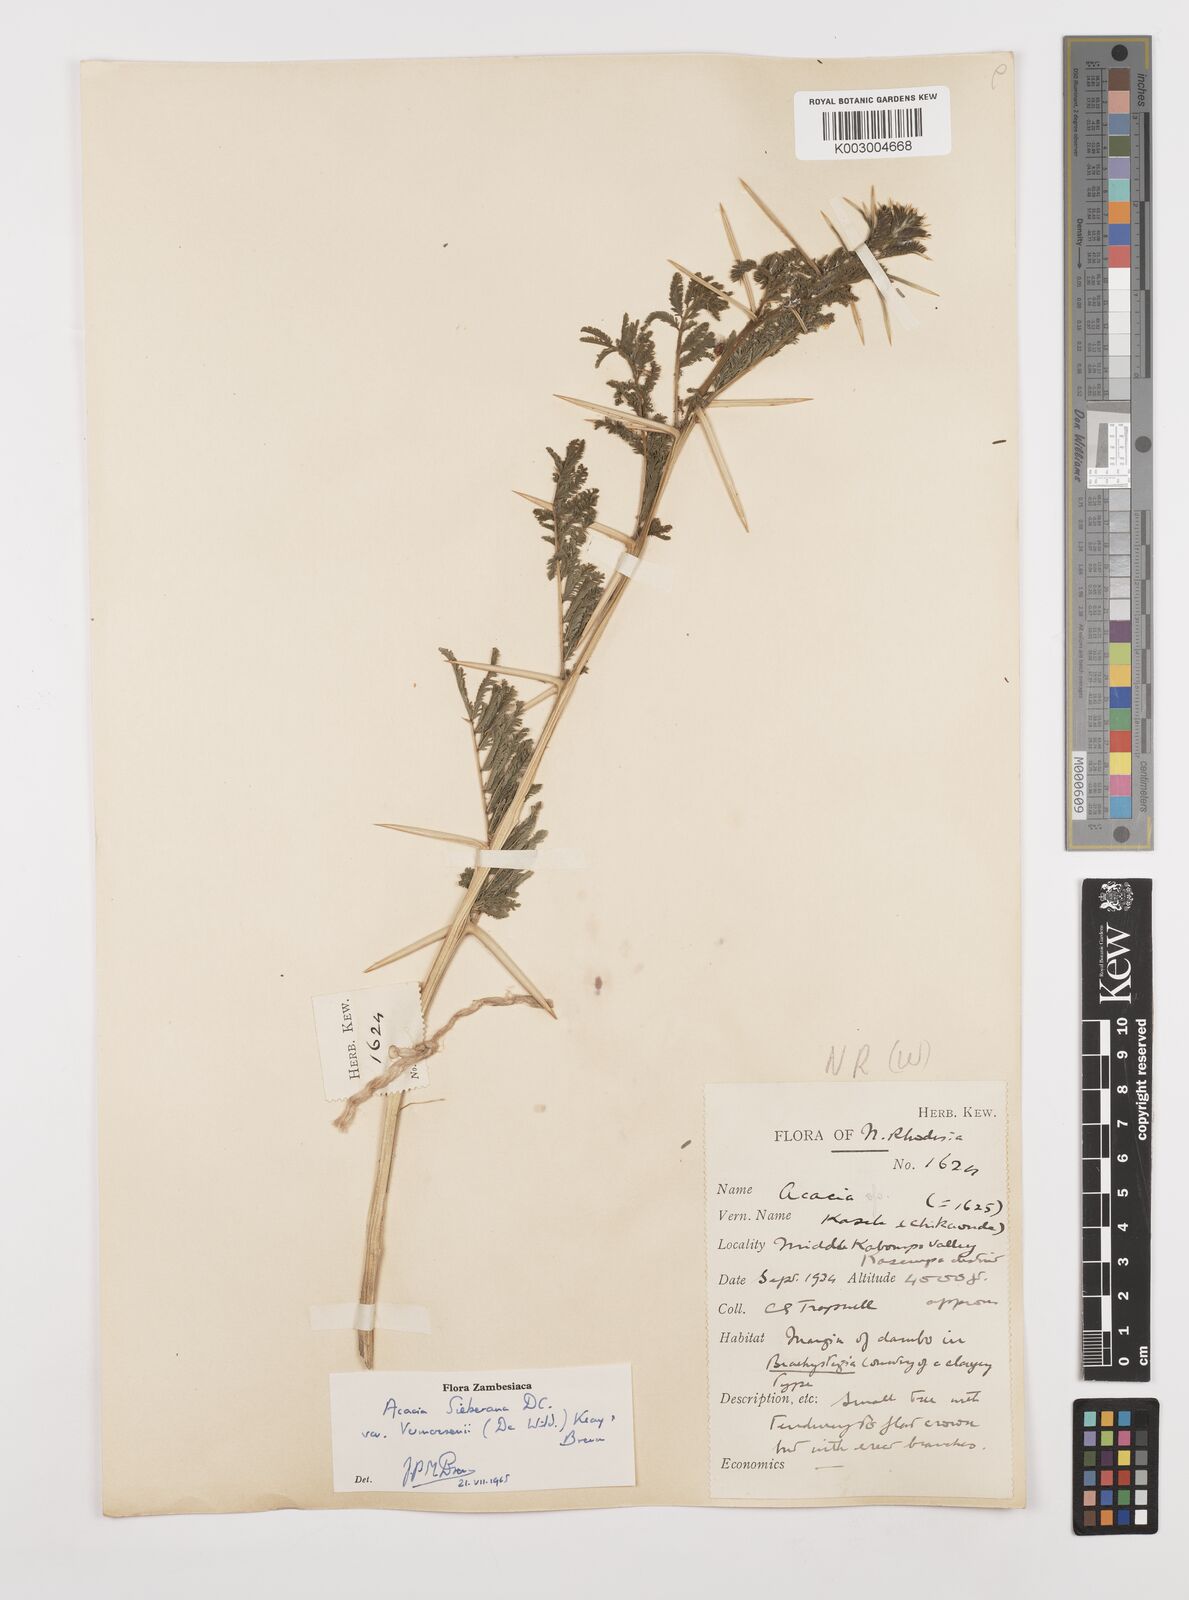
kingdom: Plantae
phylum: Tracheophyta
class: Magnoliopsida
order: Fabales
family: Fabaceae
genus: Vachellia
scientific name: Vachellia sieberiana
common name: Flat-topped thorn
